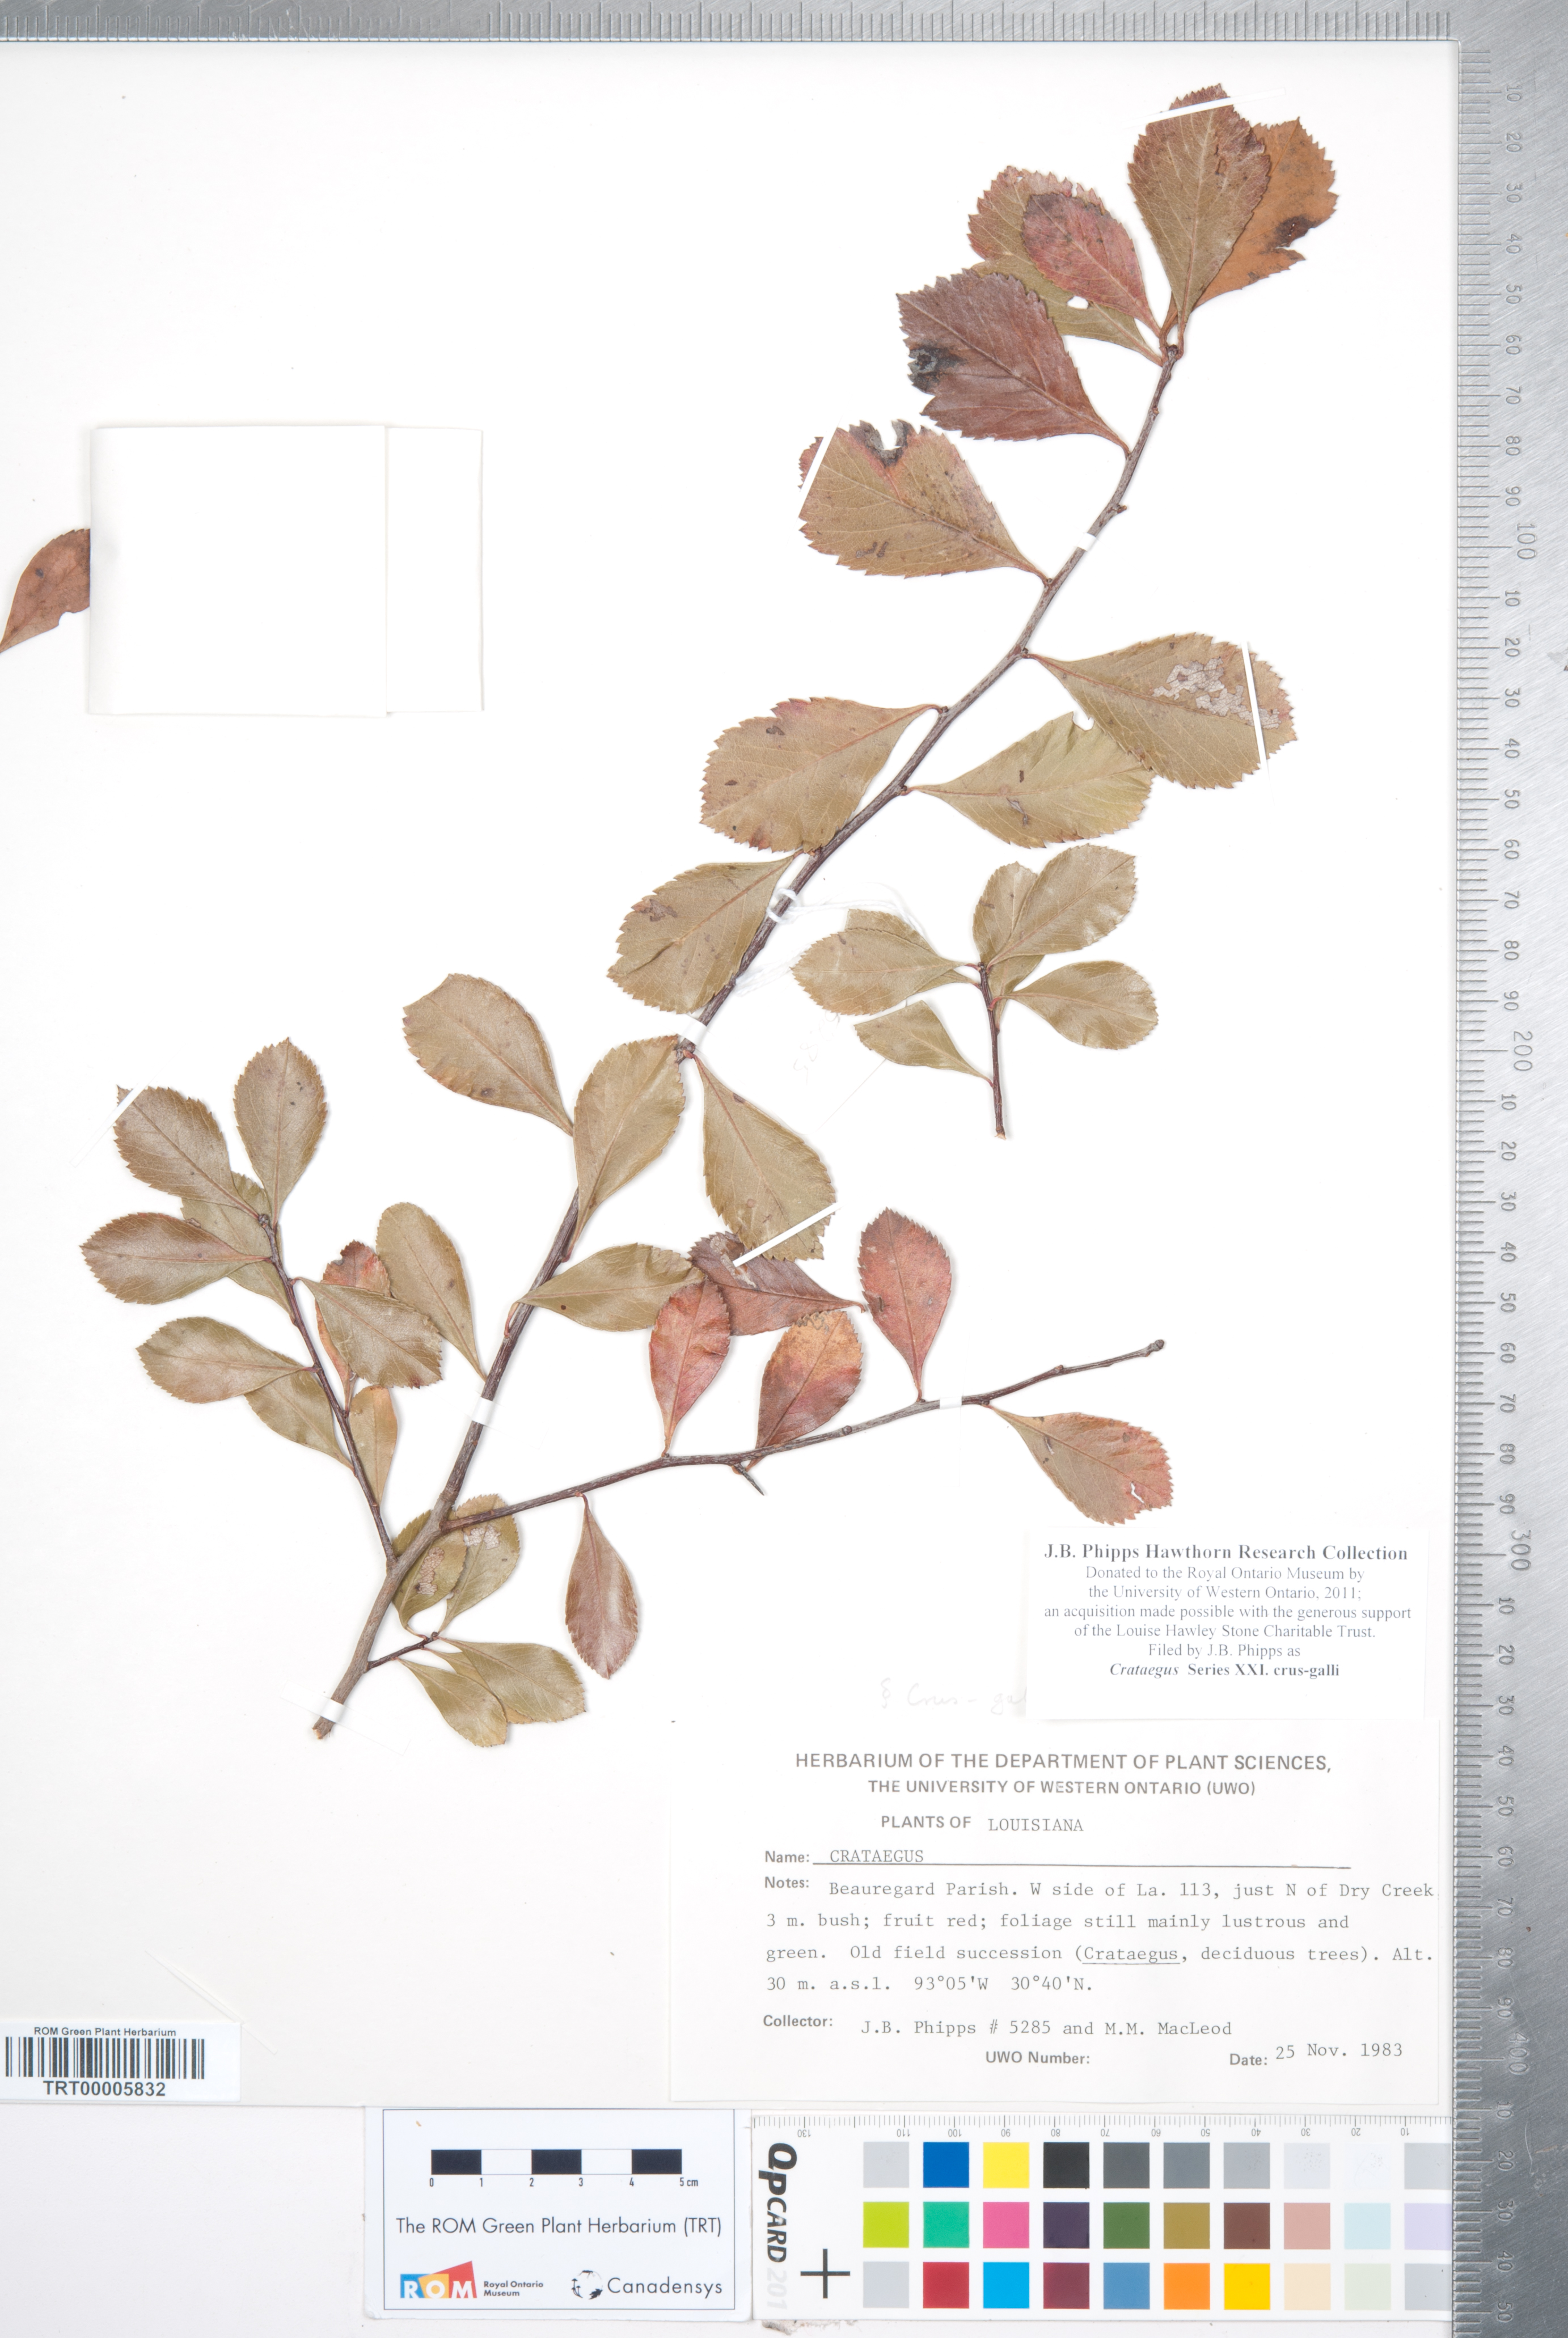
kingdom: Plantae
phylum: Tracheophyta
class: Magnoliopsida
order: Rosales
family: Rosaceae
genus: Crataegus
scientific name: Crataegus
